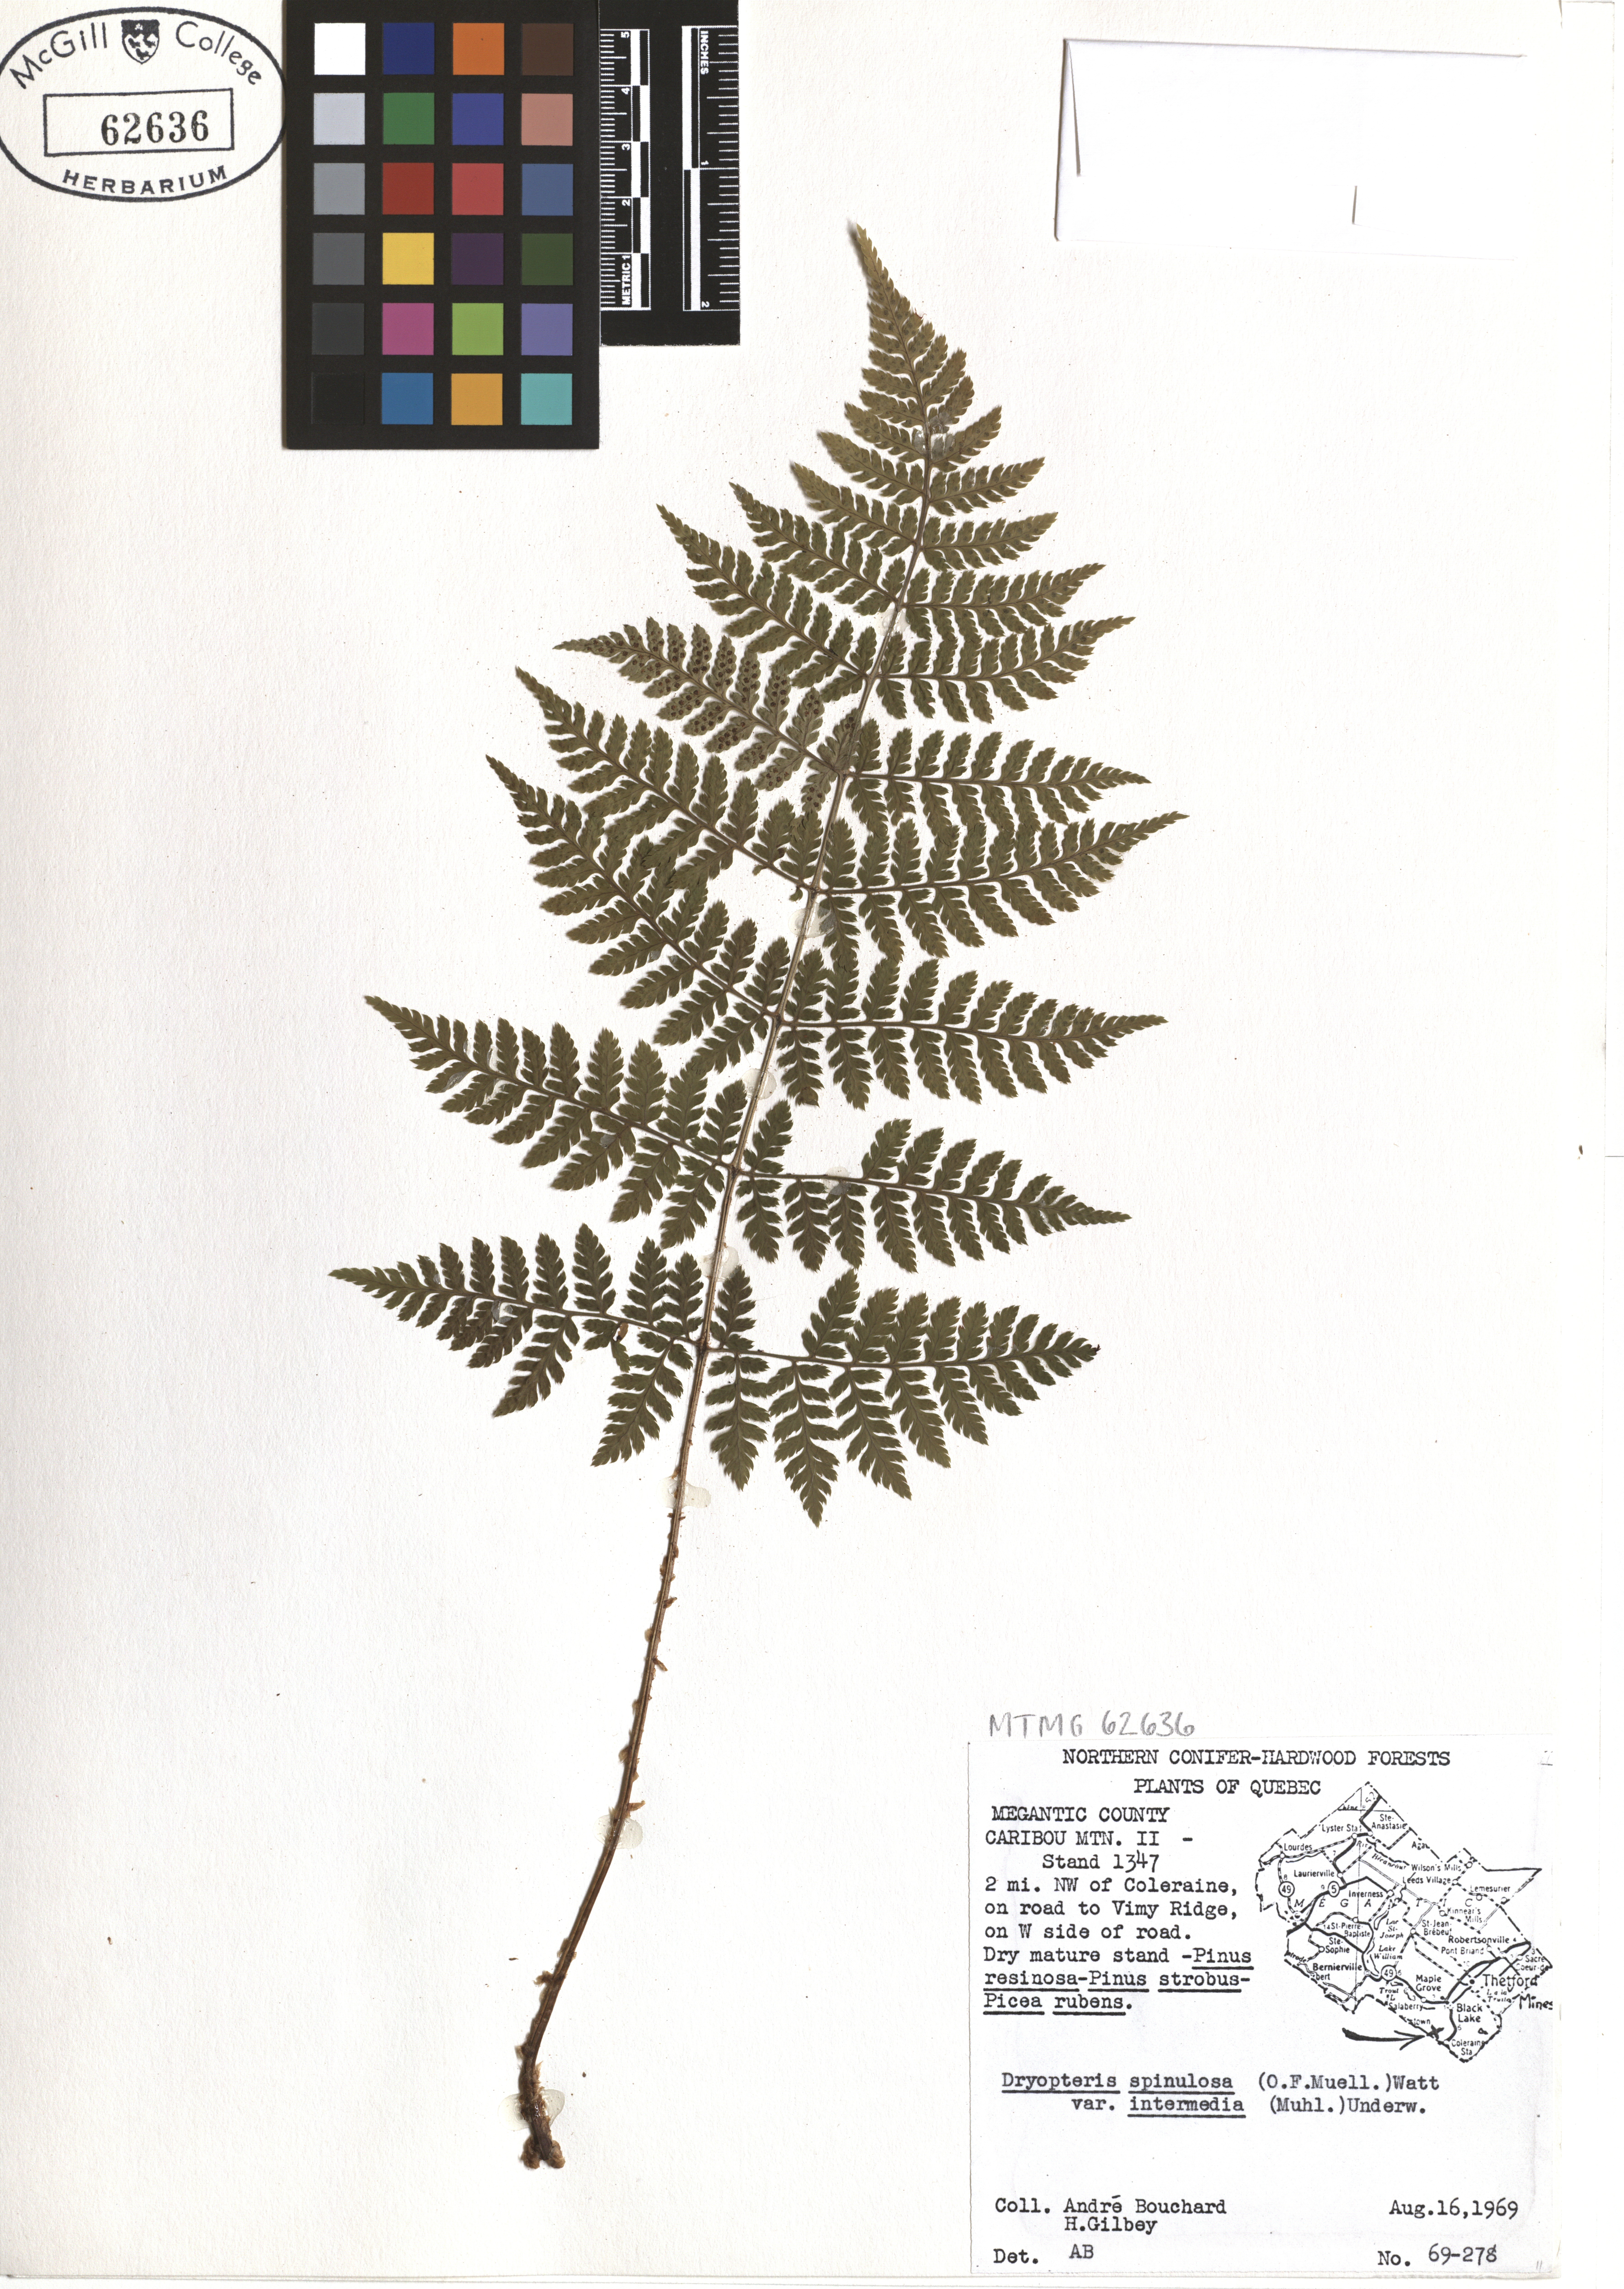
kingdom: Plantae
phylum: Tracheophyta
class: Polypodiopsida
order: Polypodiales
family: Dryopteridaceae
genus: Dryopteris
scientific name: Dryopteris intermedia
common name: Evergreen wood fern
